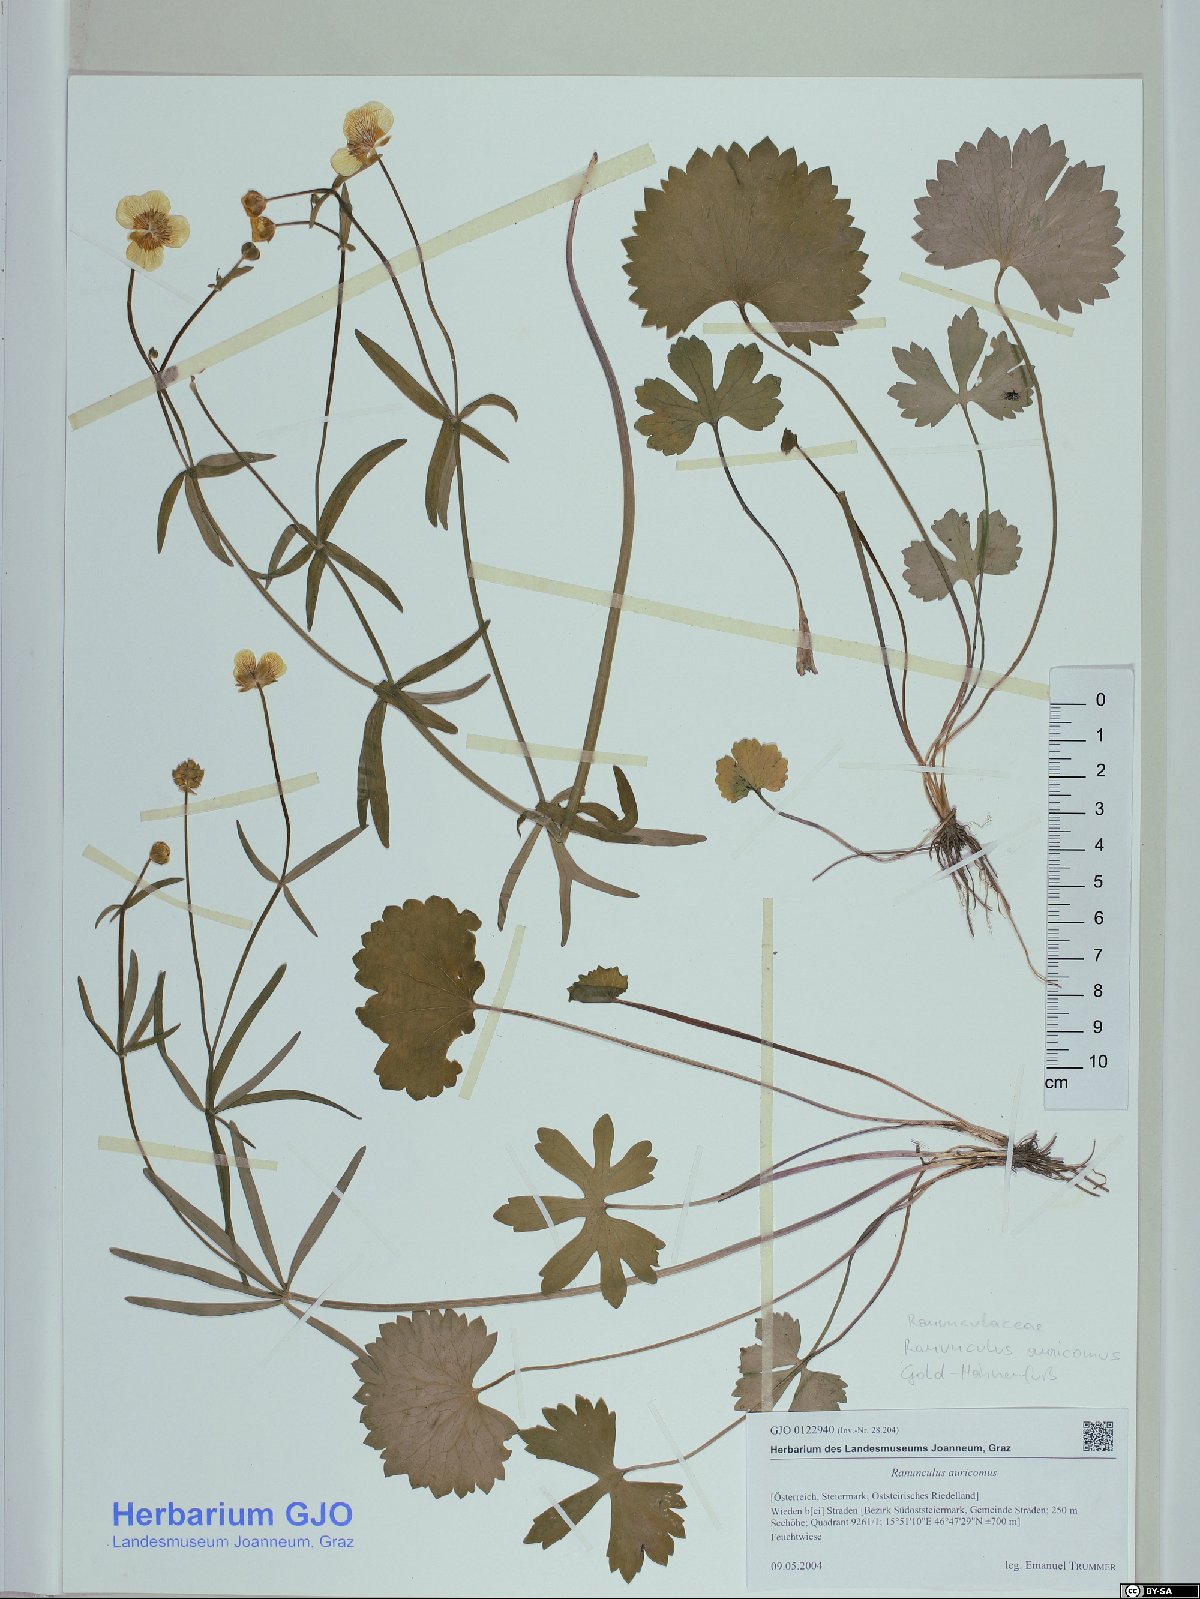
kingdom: Plantae
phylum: Tracheophyta
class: Magnoliopsida
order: Ranunculales
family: Ranunculaceae
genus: Ranunculus
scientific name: Ranunculus auricomus
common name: Goldilocks buttercup
